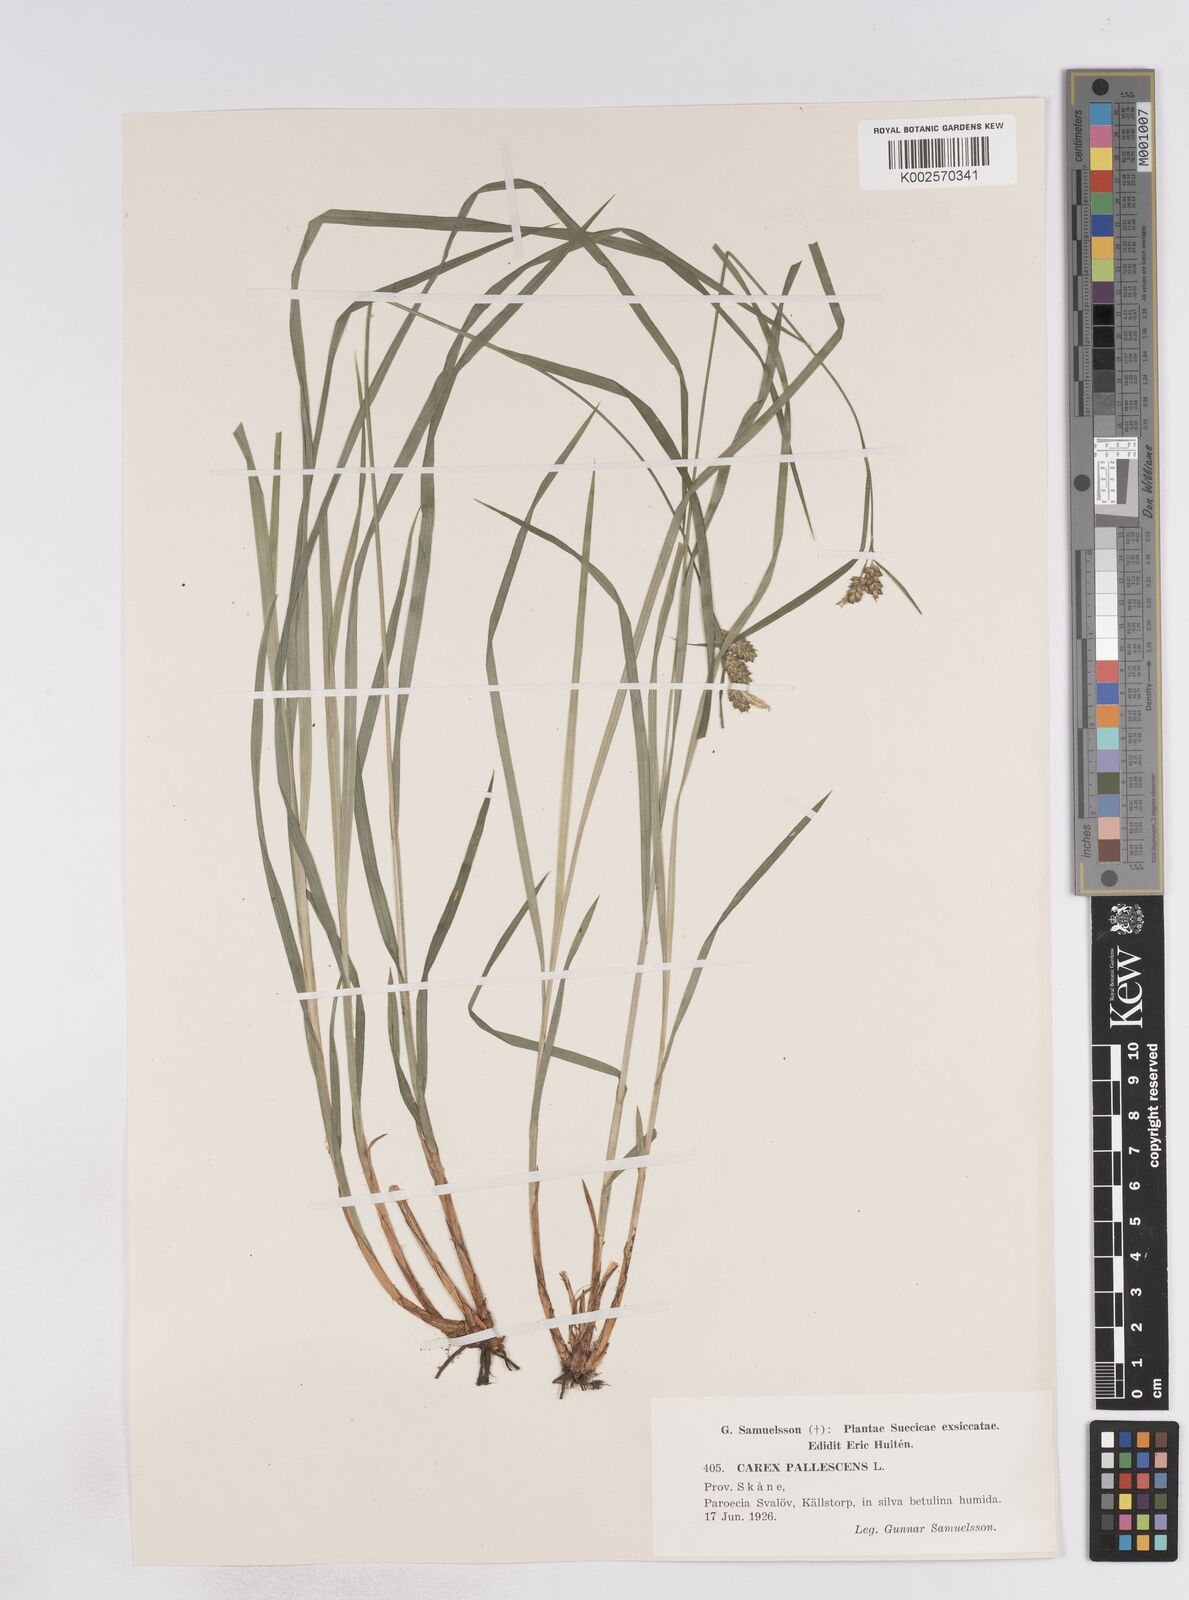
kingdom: Plantae
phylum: Tracheophyta
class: Liliopsida
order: Poales
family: Cyperaceae
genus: Carex
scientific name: Carex pallescens
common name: Pale sedge
